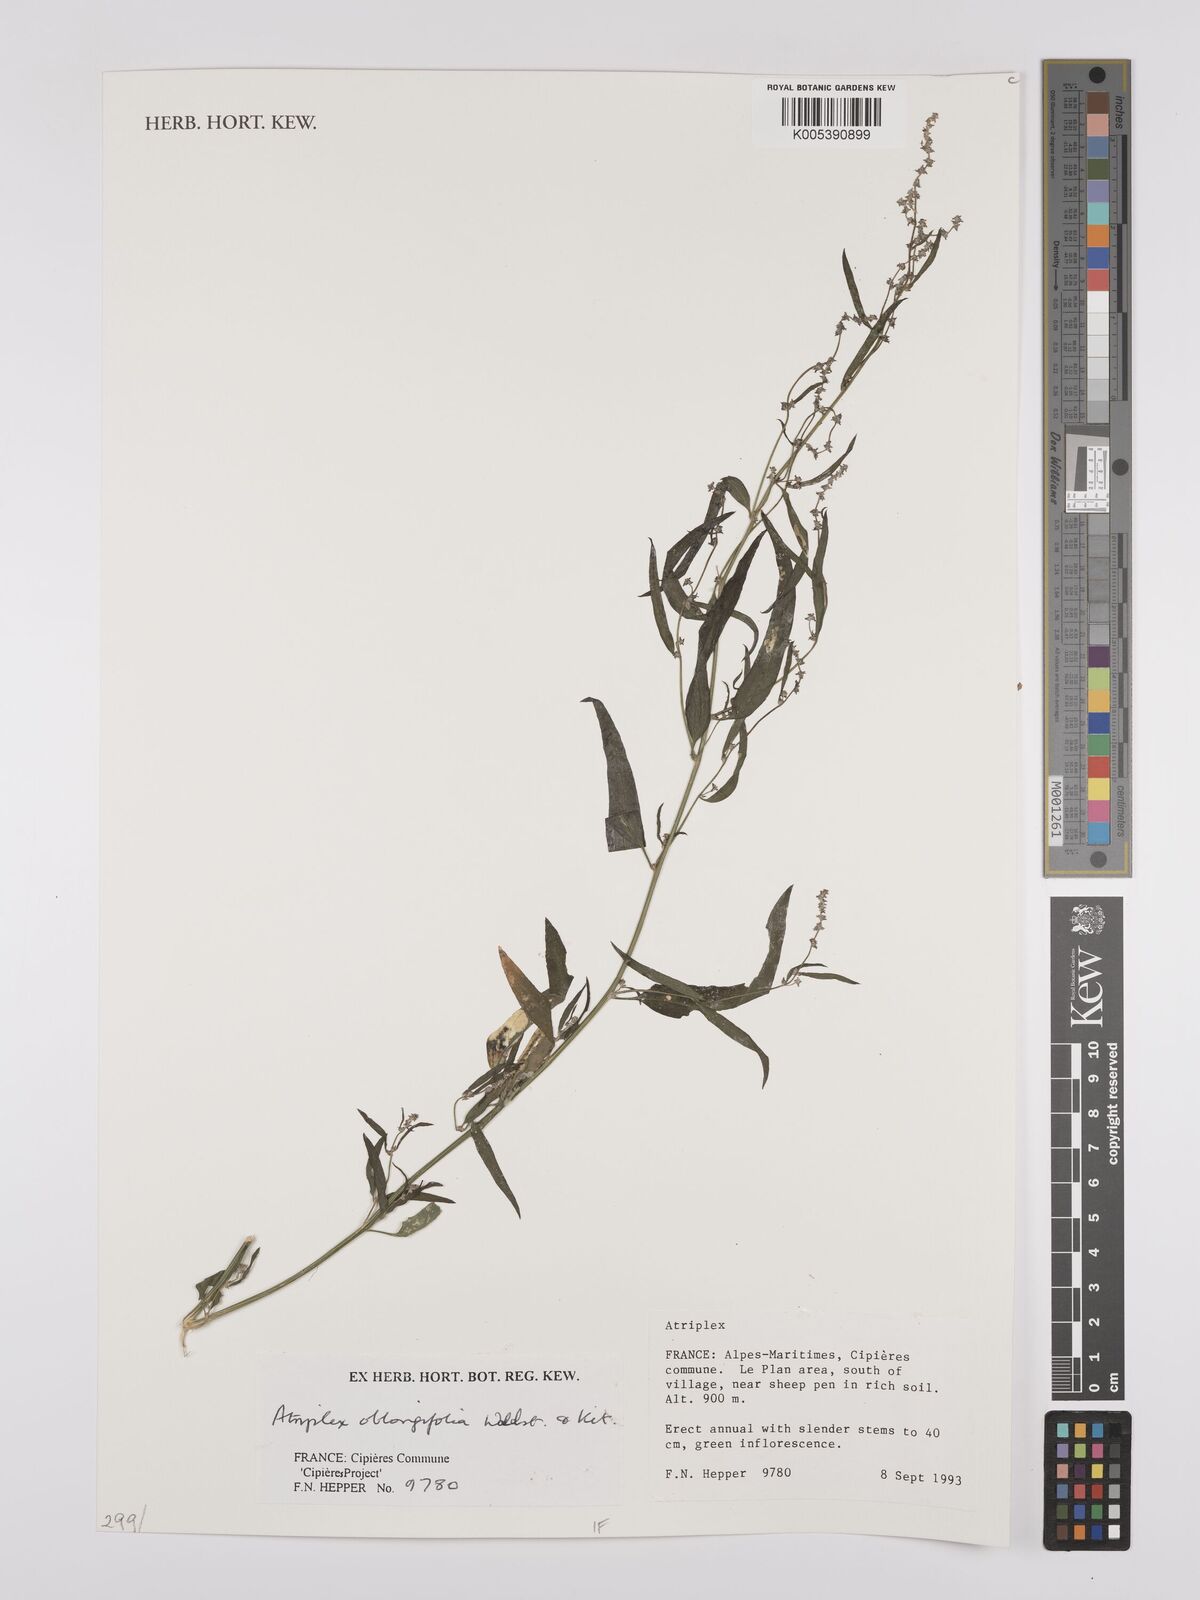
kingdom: Plantae
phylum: Tracheophyta
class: Magnoliopsida
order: Caryophyllales
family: Amaranthaceae
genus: Atriplex
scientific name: Atriplex
